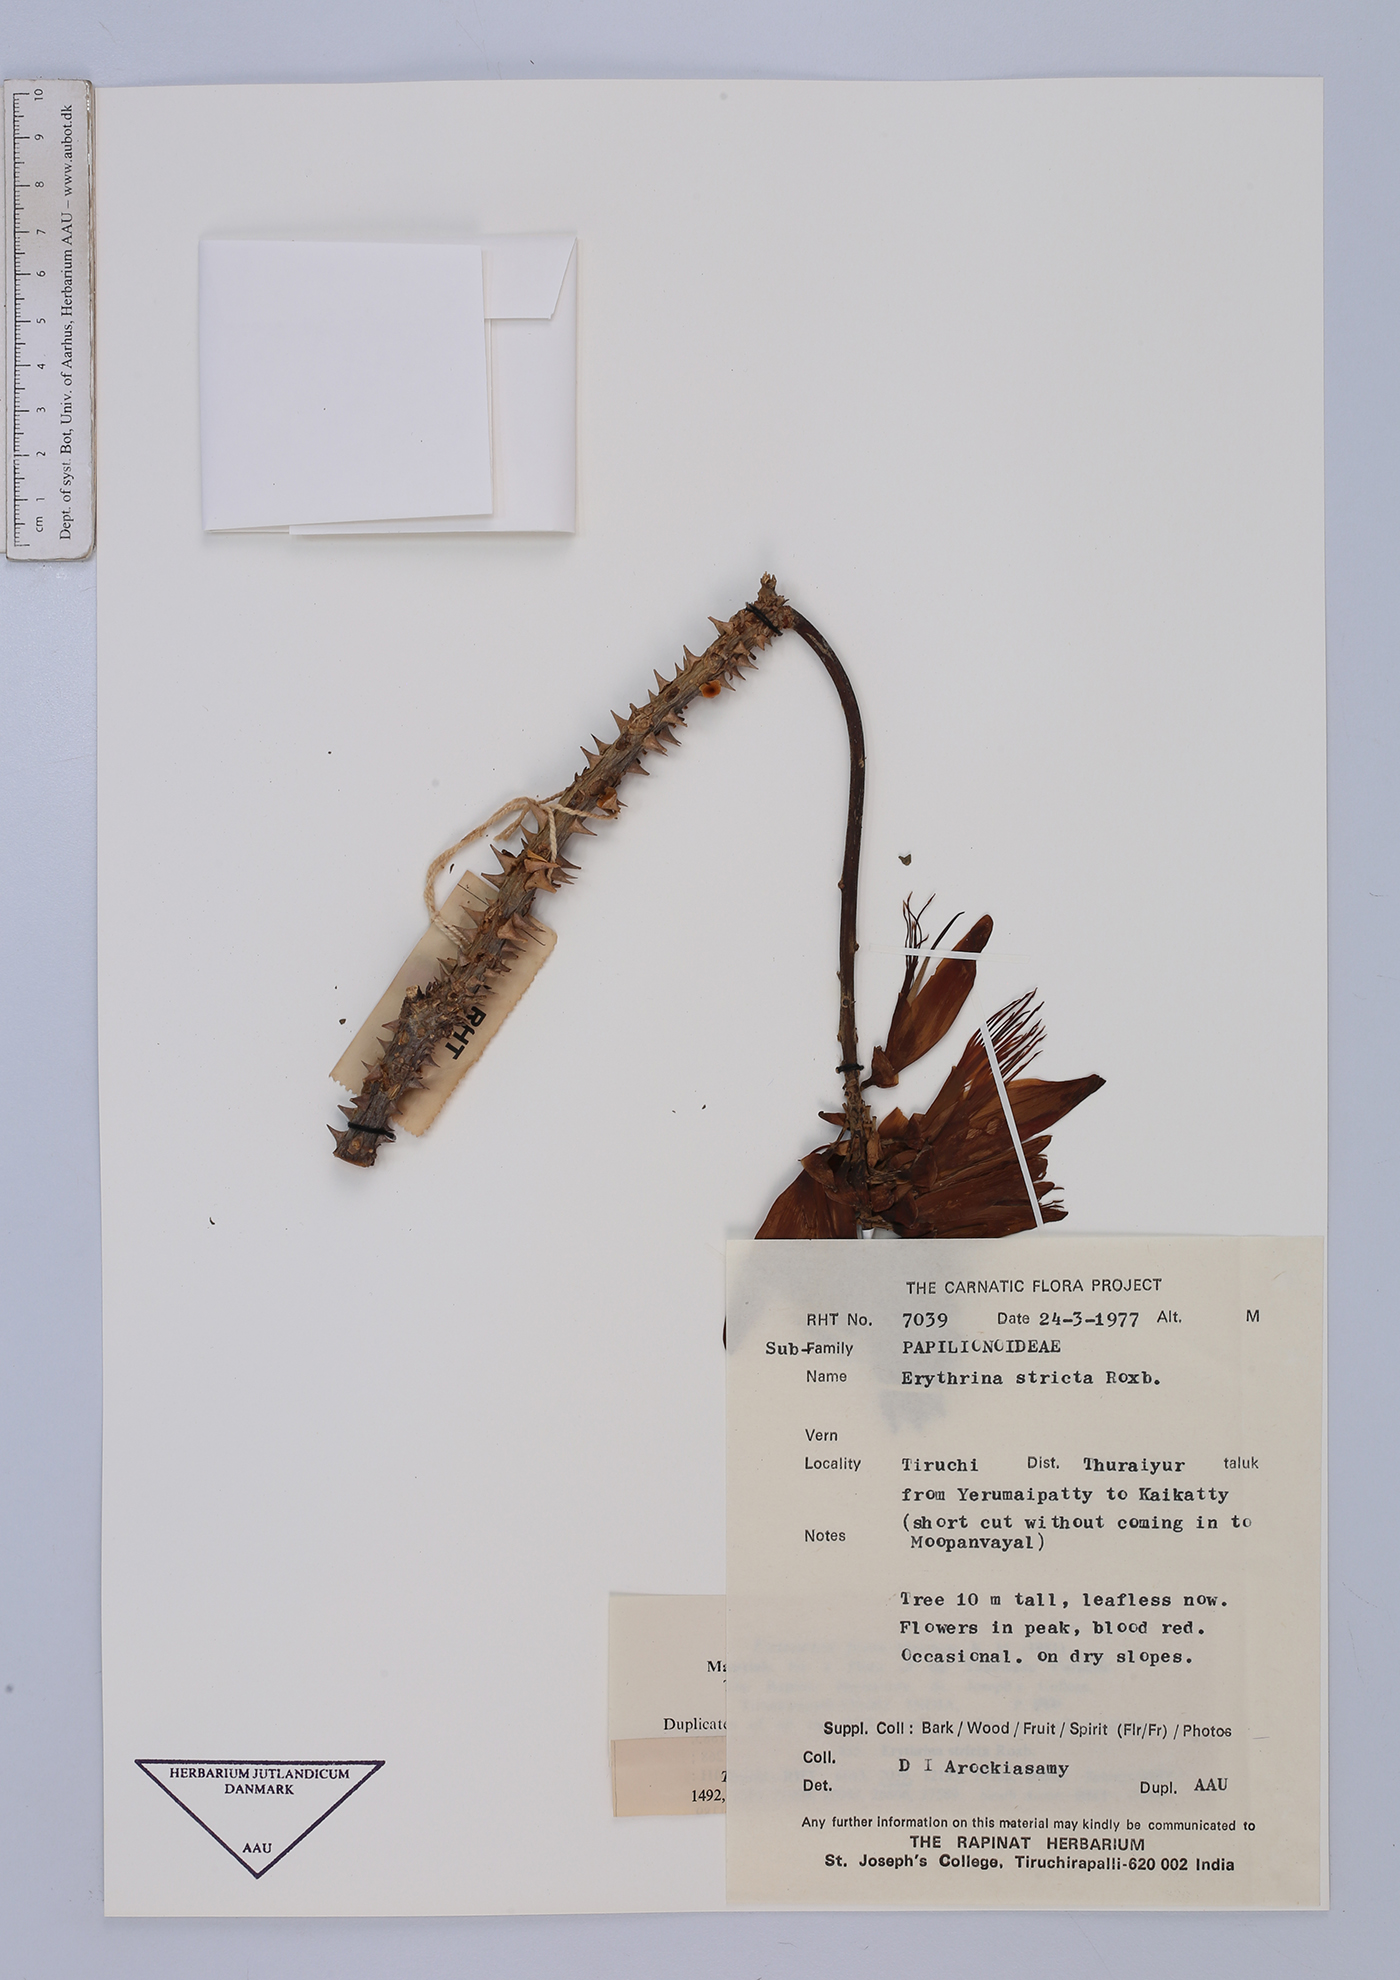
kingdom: Plantae
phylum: Tracheophyta
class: Magnoliopsida
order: Fabales
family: Fabaceae
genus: Erythrina
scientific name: Erythrina stricta
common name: Coraltree
